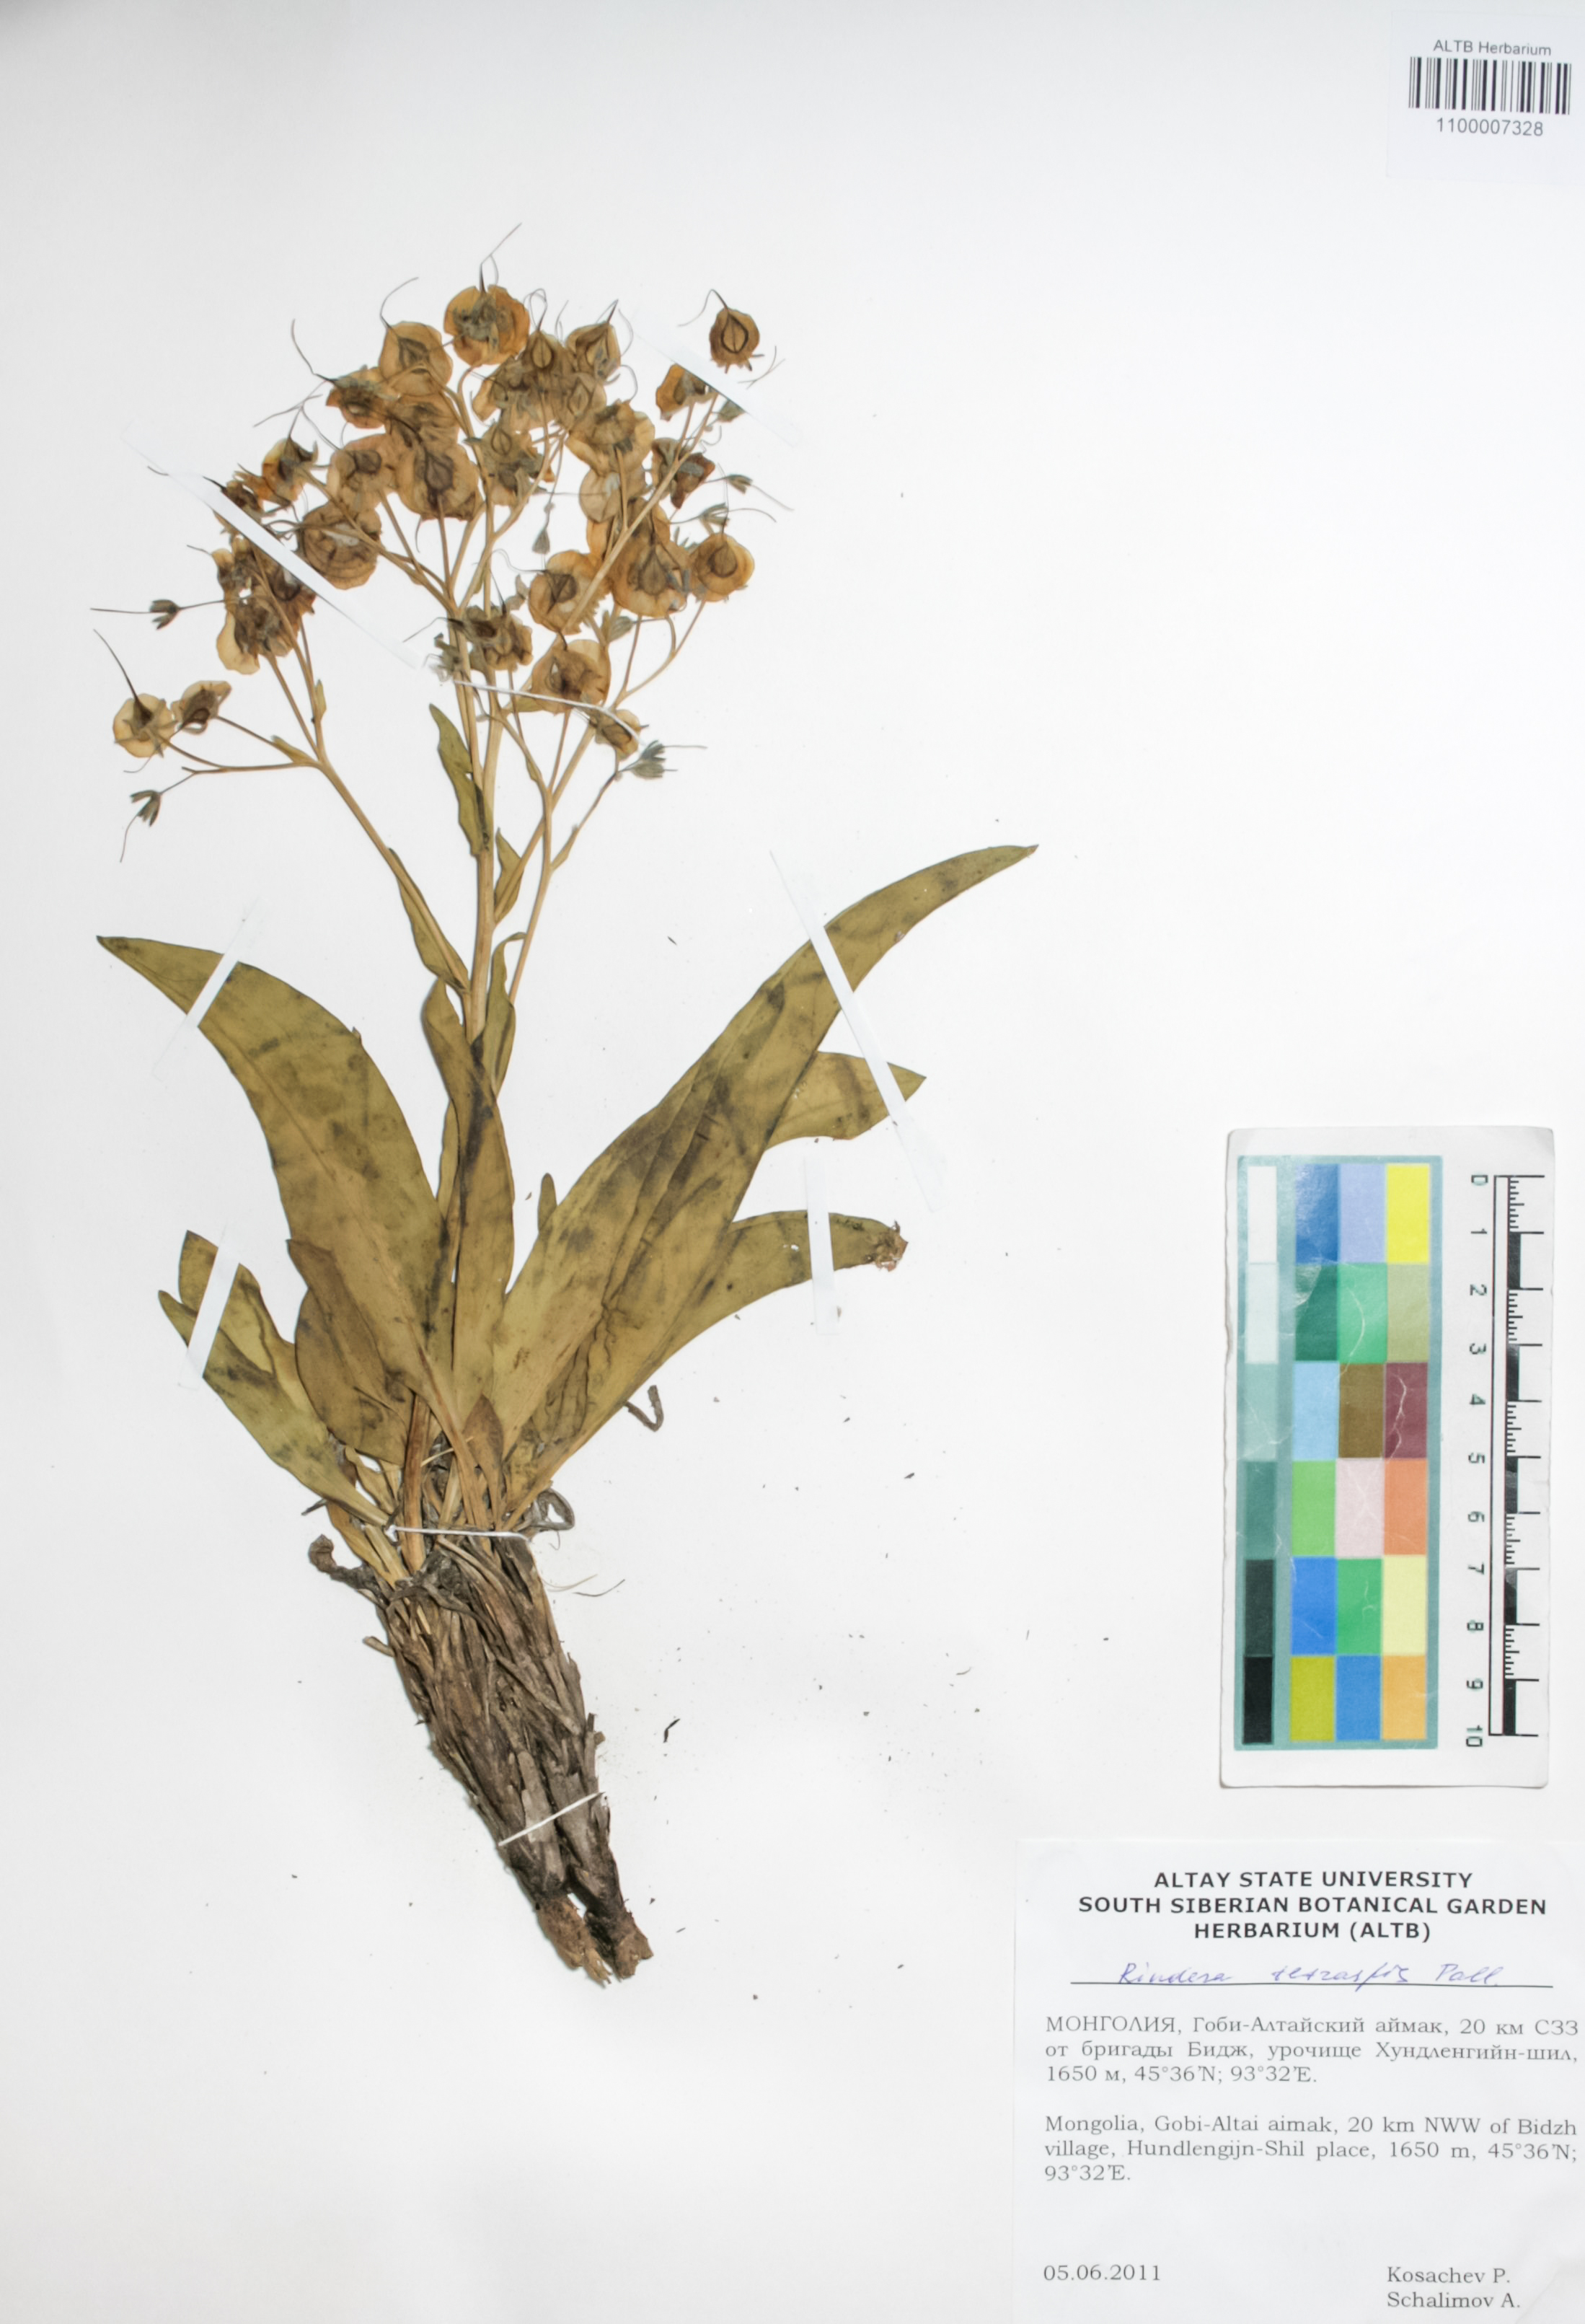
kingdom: Plantae
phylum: Tracheophyta
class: Magnoliopsida
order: Boraginales
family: Boraginaceae
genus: Rindera
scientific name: Rindera tetraspis
